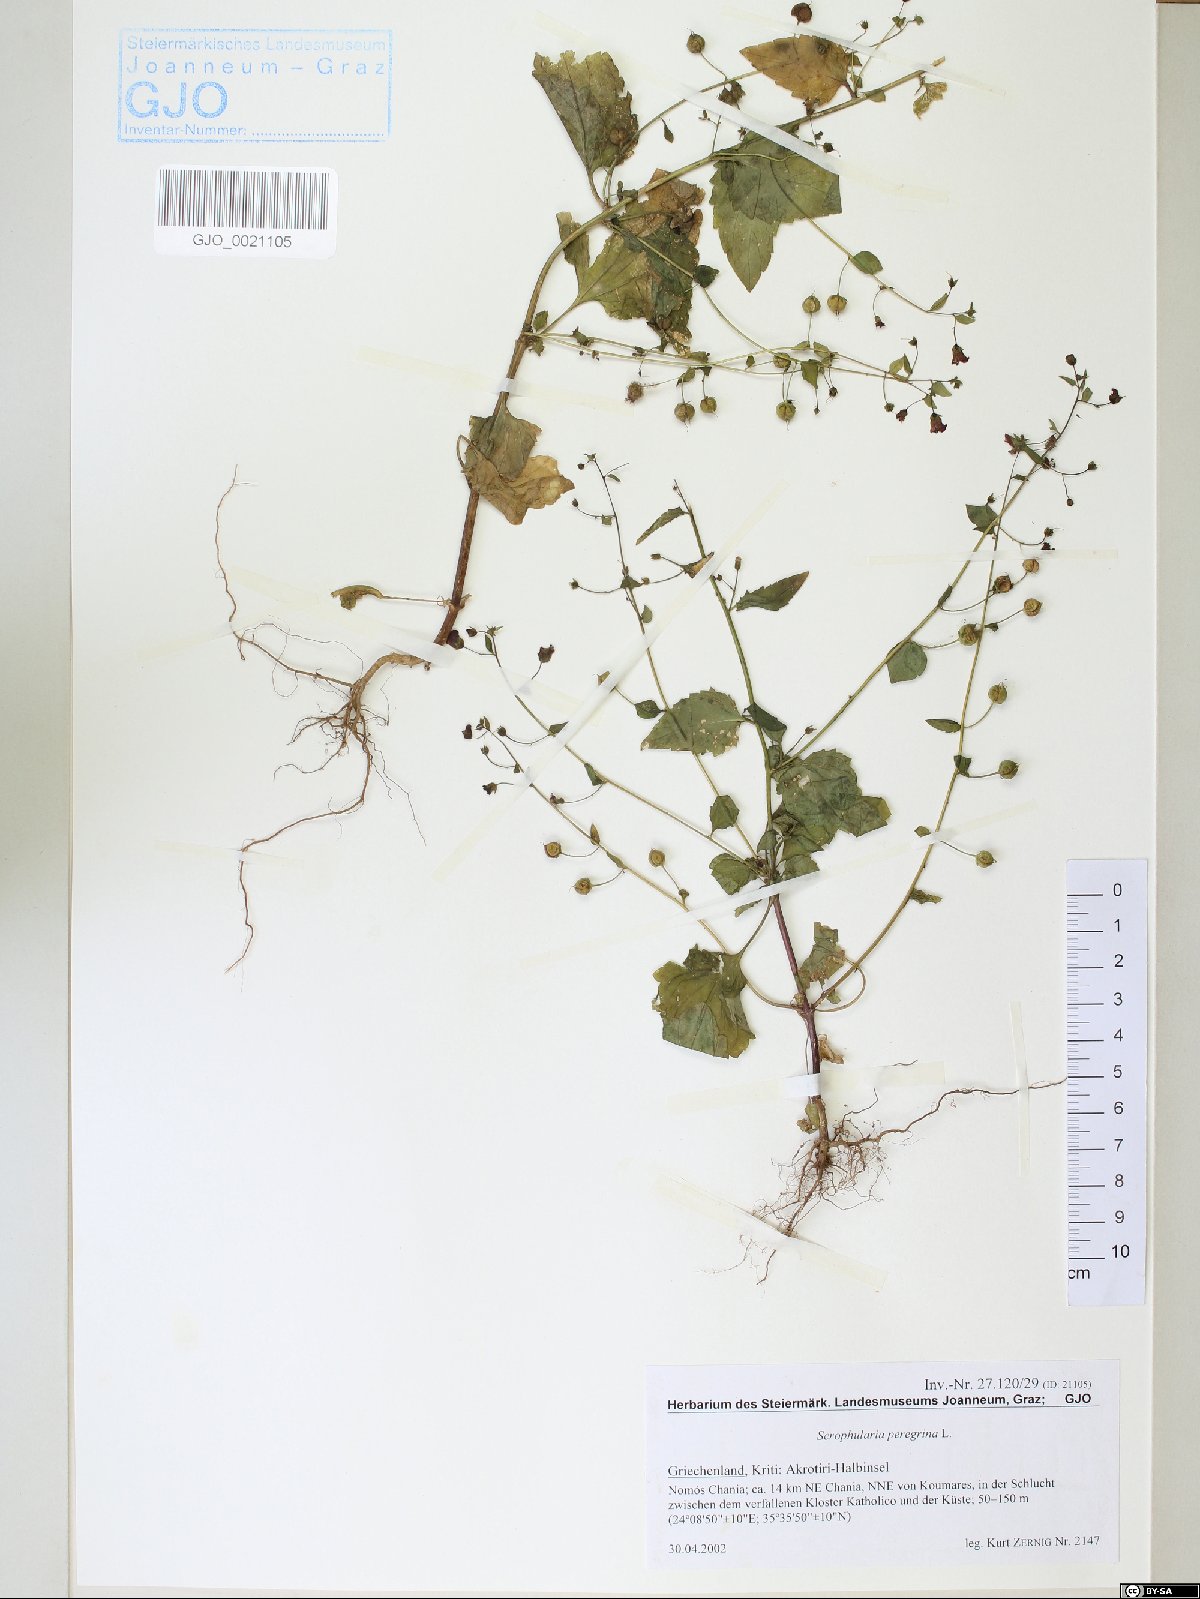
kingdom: Plantae
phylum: Tracheophyta
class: Magnoliopsida
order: Lamiales
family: Scrophulariaceae
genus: Scrophularia
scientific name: Scrophularia peregrina
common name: Mediterranean figwort
